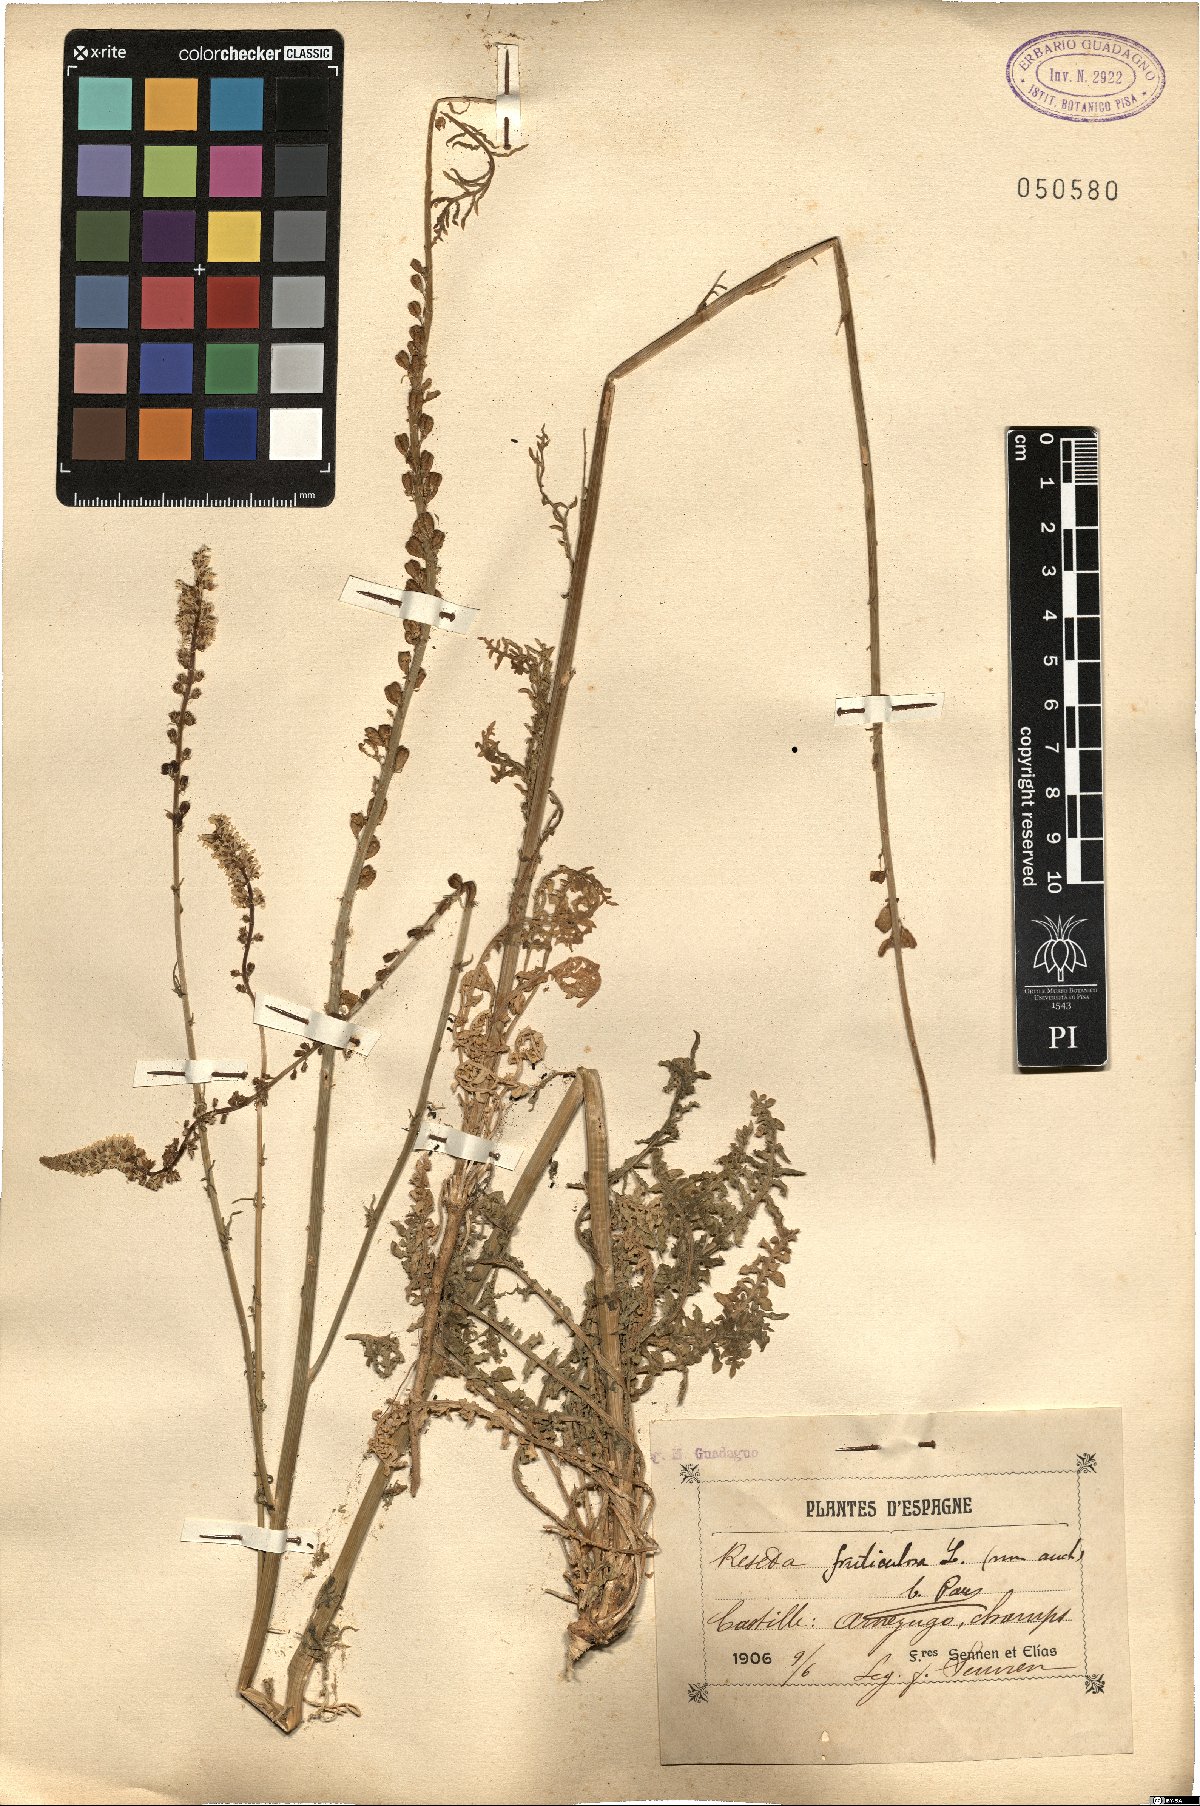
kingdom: Plantae
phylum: Tracheophyta
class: Magnoliopsida
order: Brassicales
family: Resedaceae
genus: Reseda
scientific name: Reseda alba
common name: White mignonette
